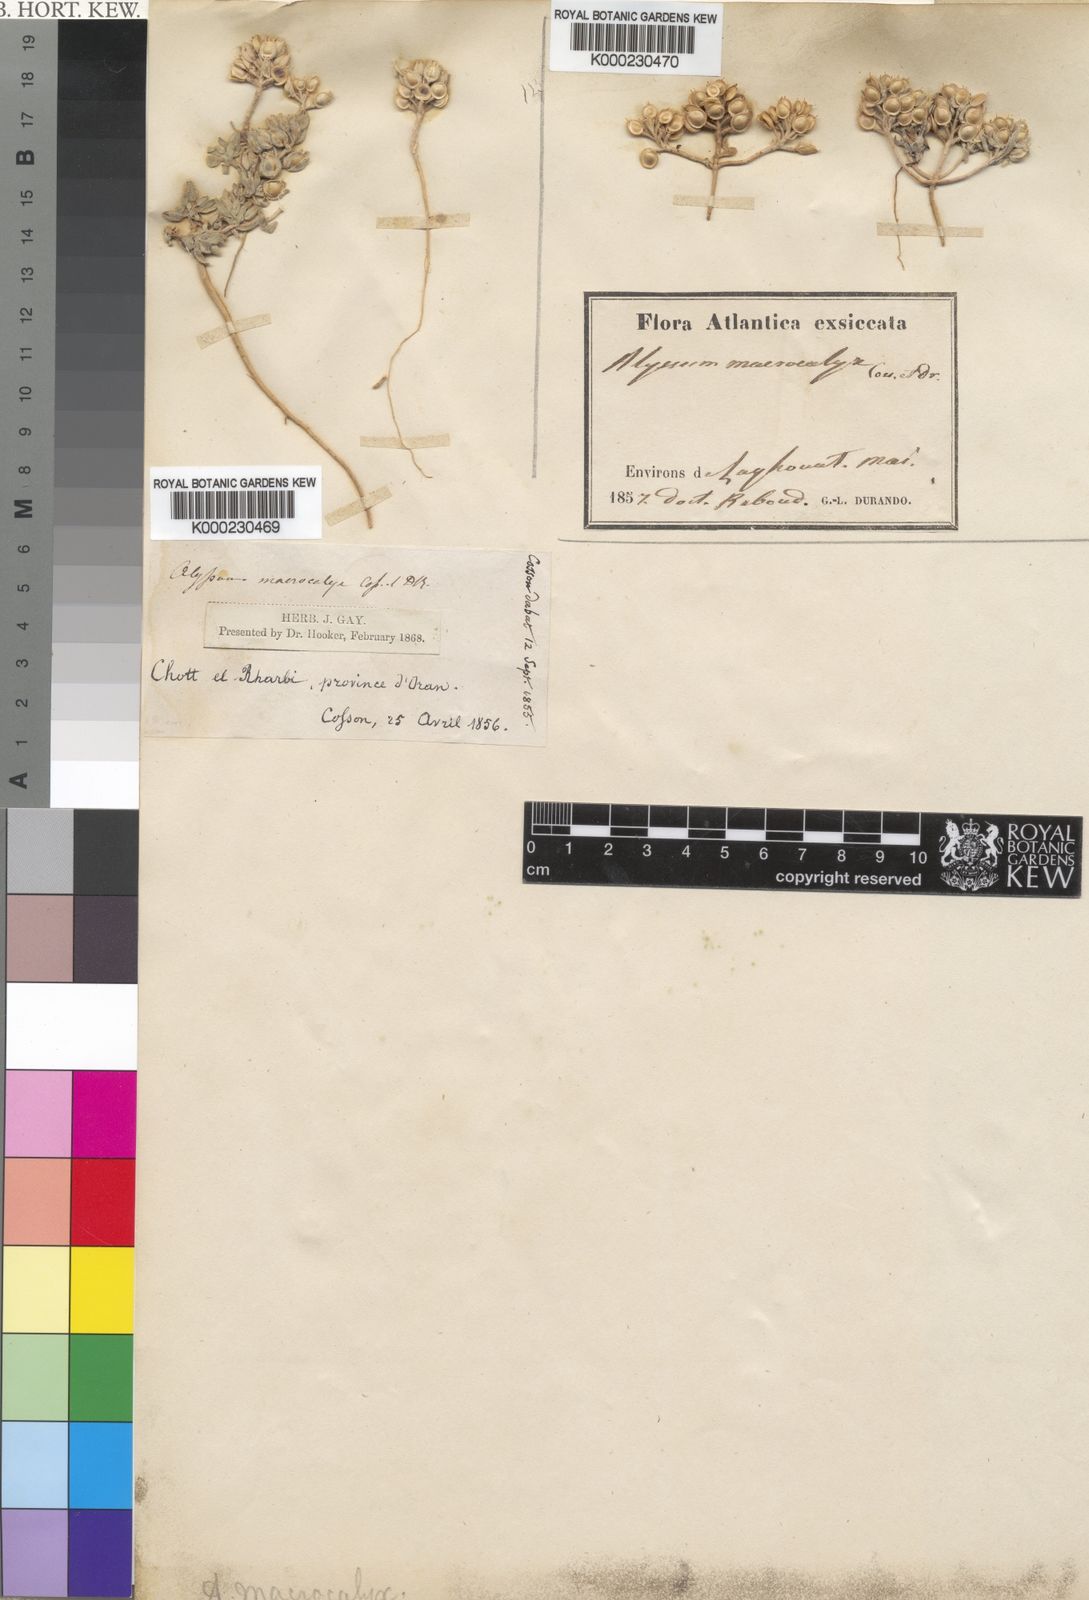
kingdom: Plantae
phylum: Tracheophyta
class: Magnoliopsida
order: Brassicales
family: Brassicaceae
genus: Alyssum
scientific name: Alyssum macrocalyx
